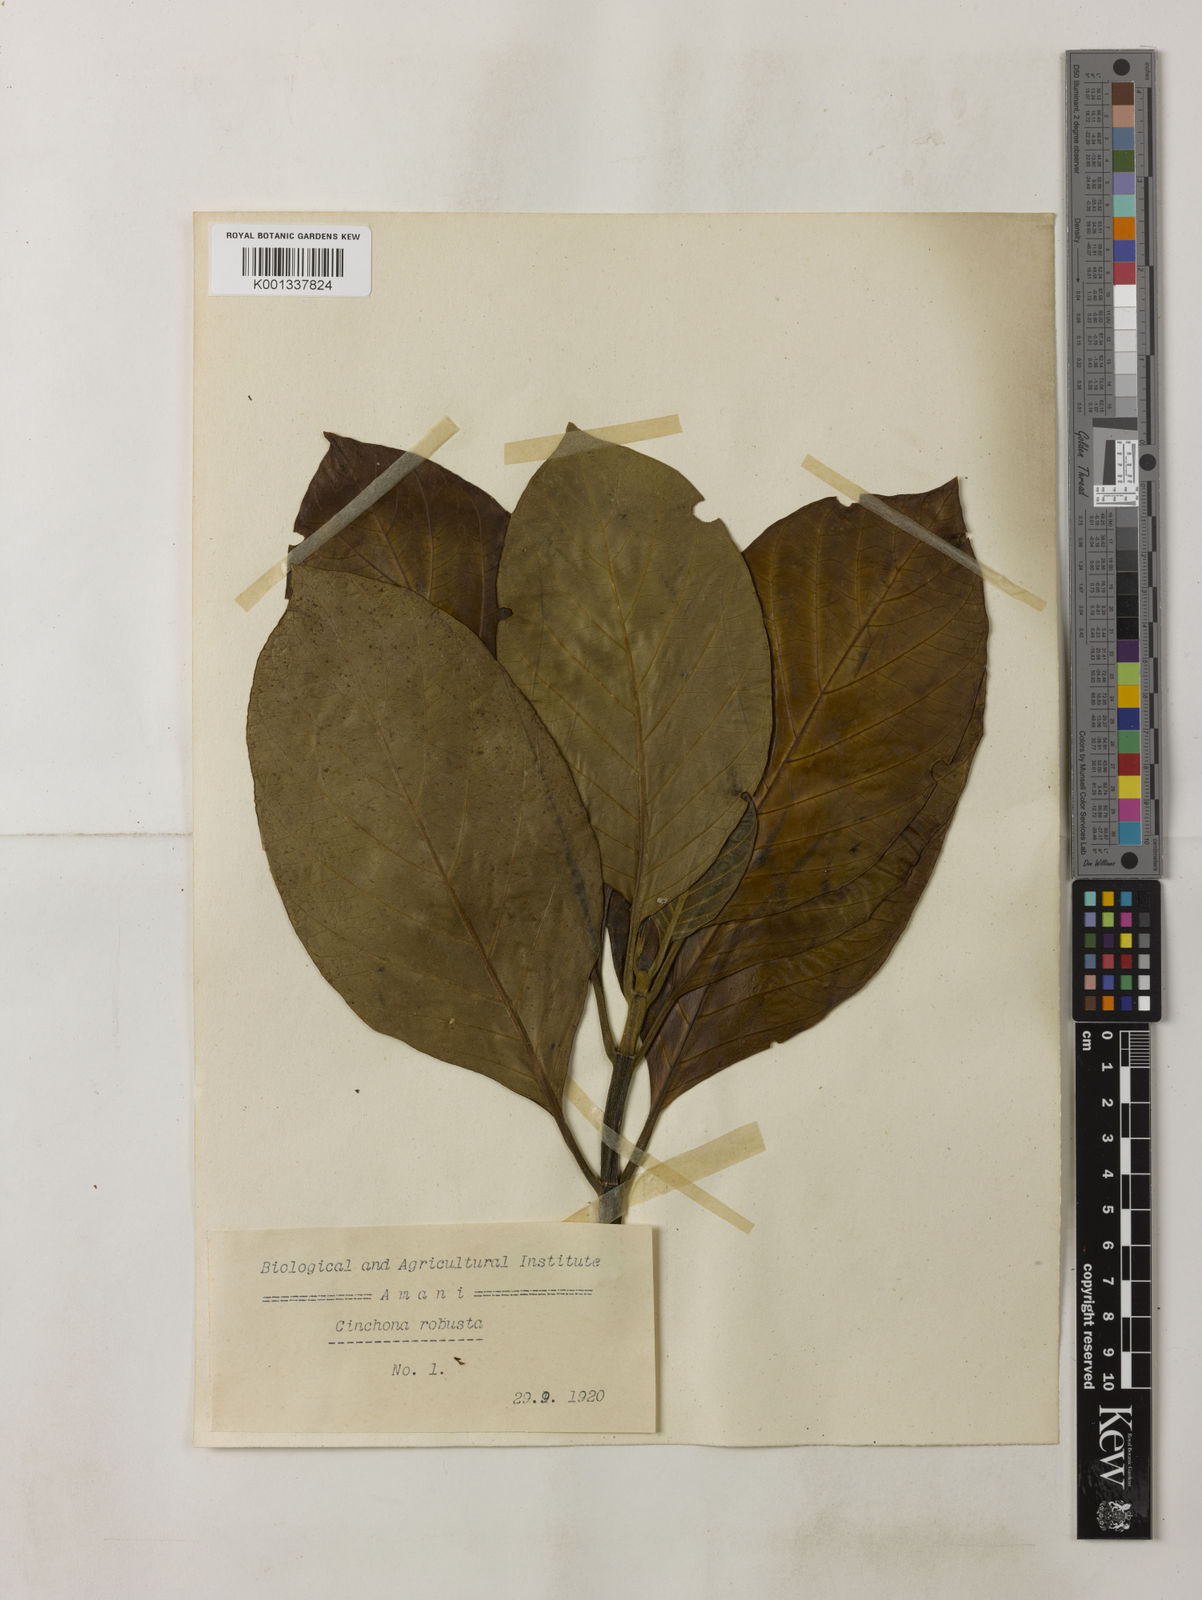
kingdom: Plantae
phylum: Tracheophyta
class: Magnoliopsida
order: Gentianales
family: Rubiaceae
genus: Cinchona
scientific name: Cinchona officinalis
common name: Lojabark
